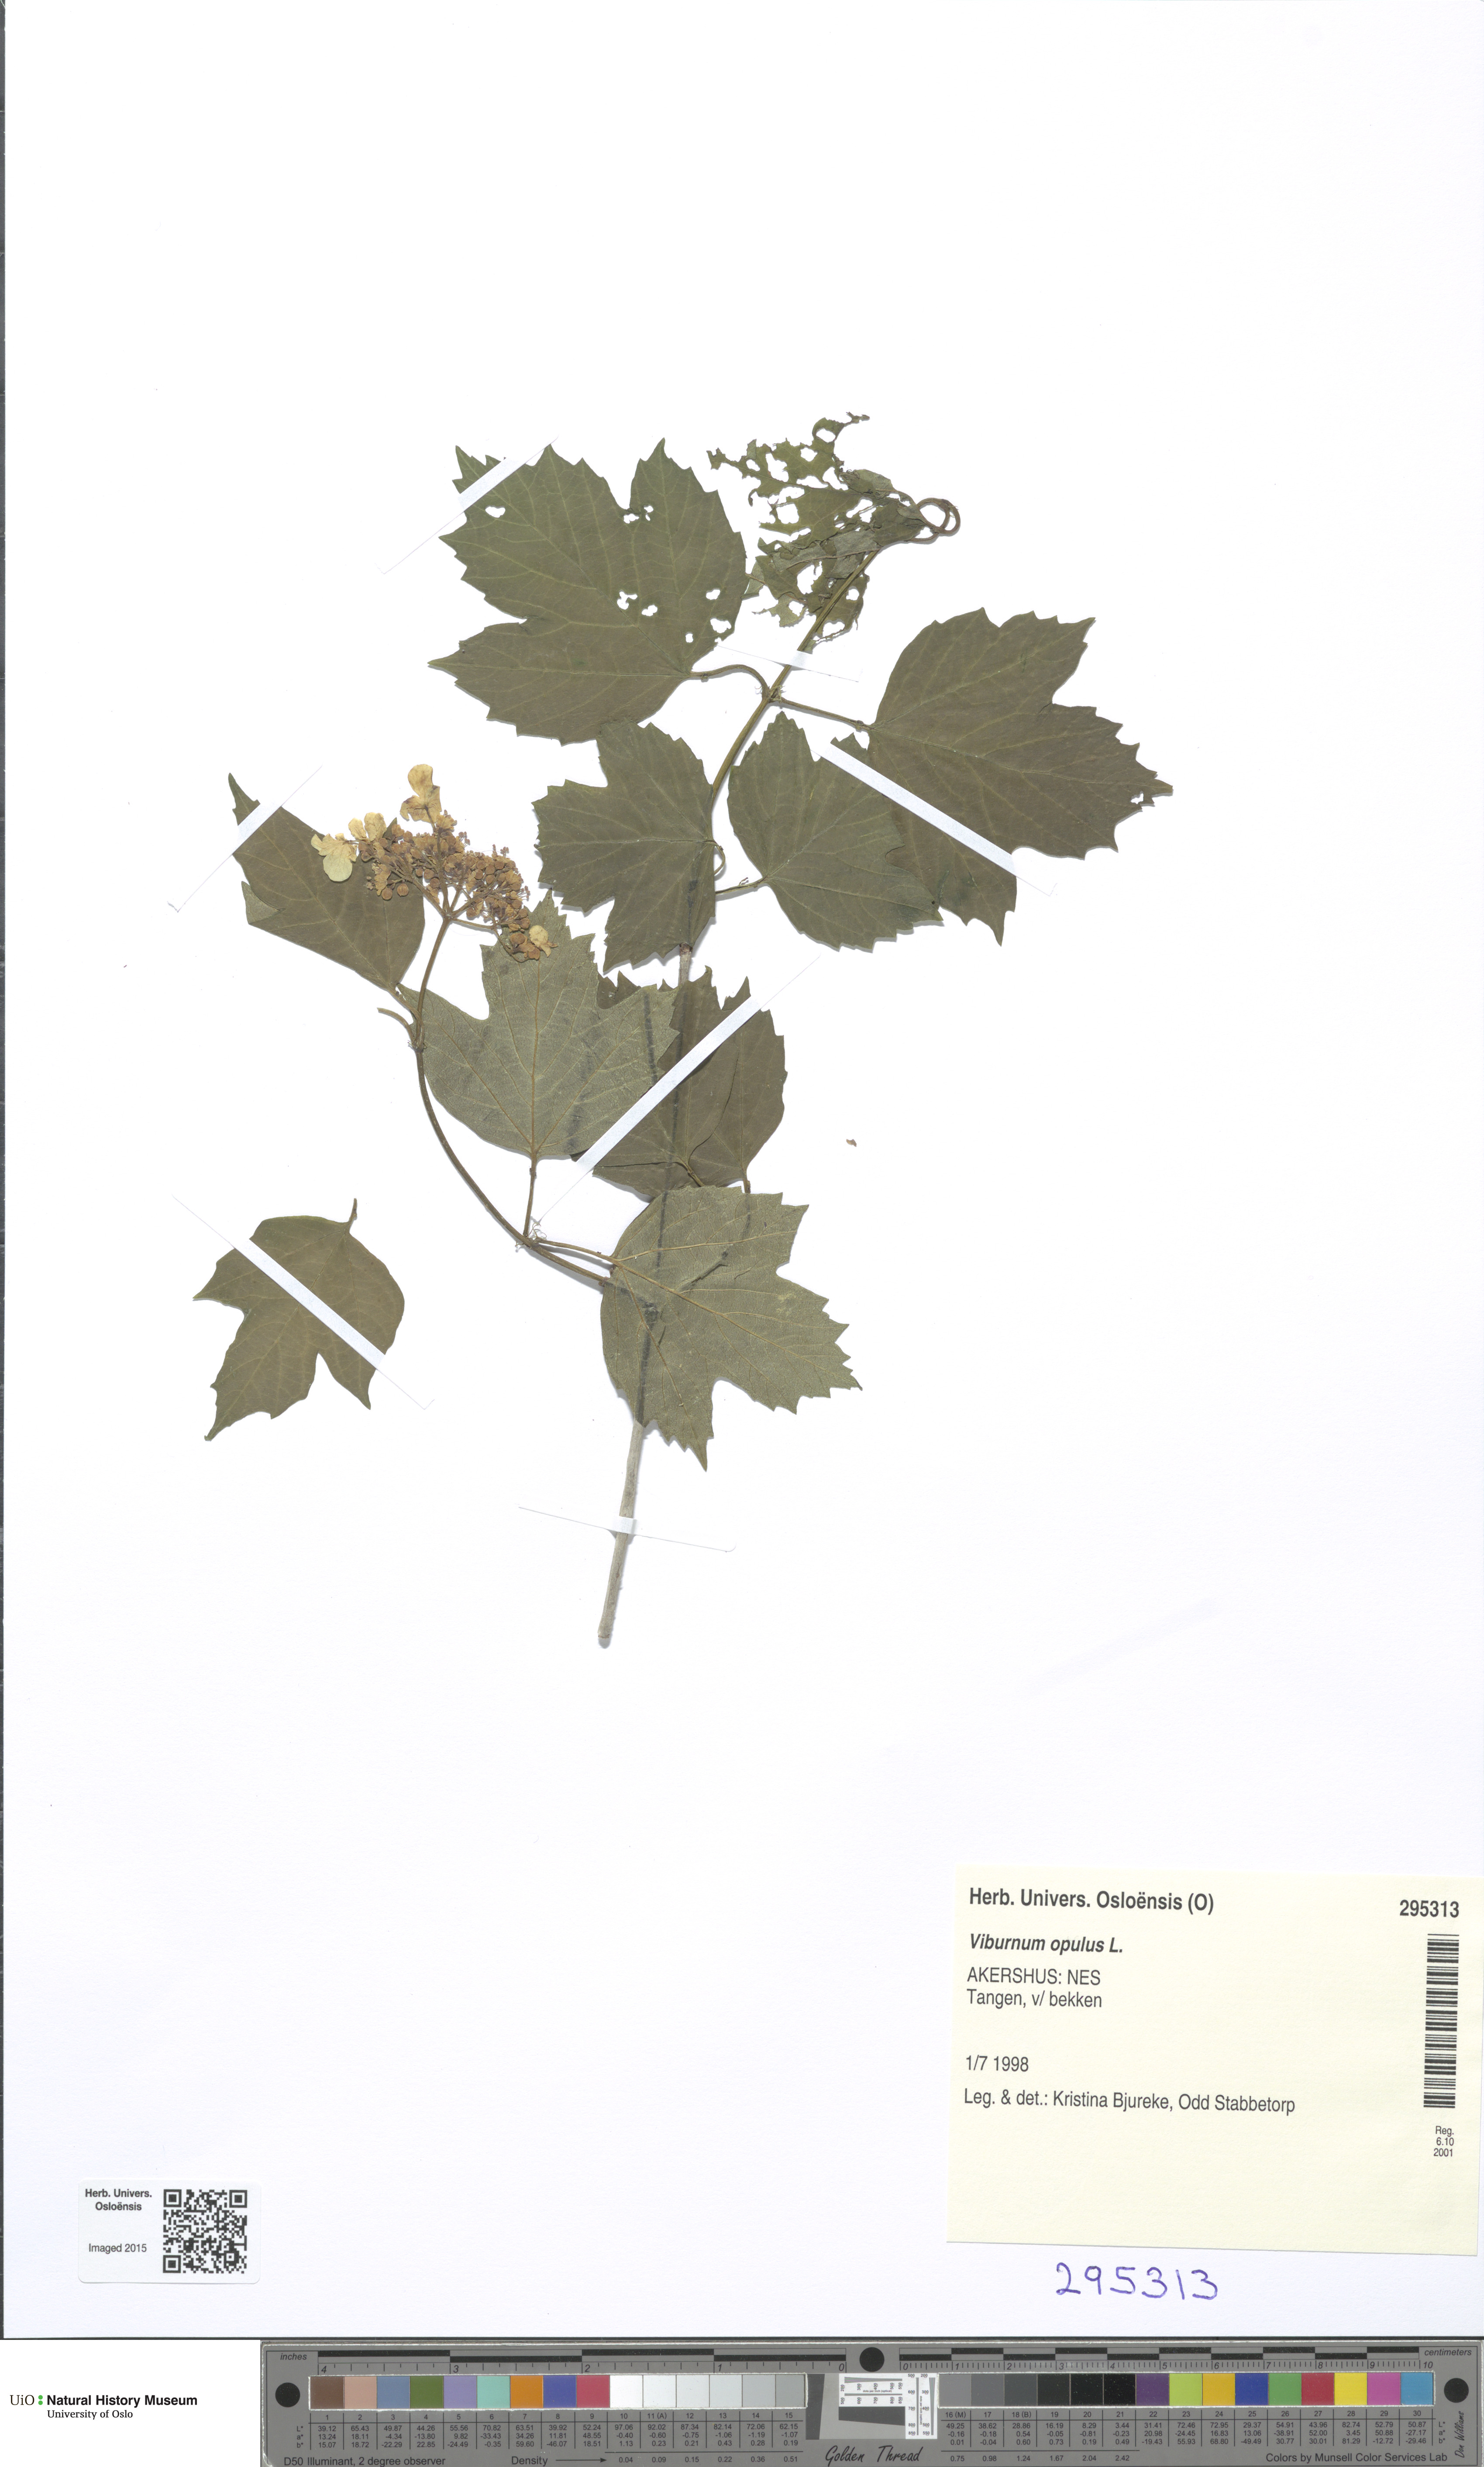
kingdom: Plantae
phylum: Tracheophyta
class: Magnoliopsida
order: Dipsacales
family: Viburnaceae
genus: Viburnum
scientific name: Viburnum opulus
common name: Guelder-rose
